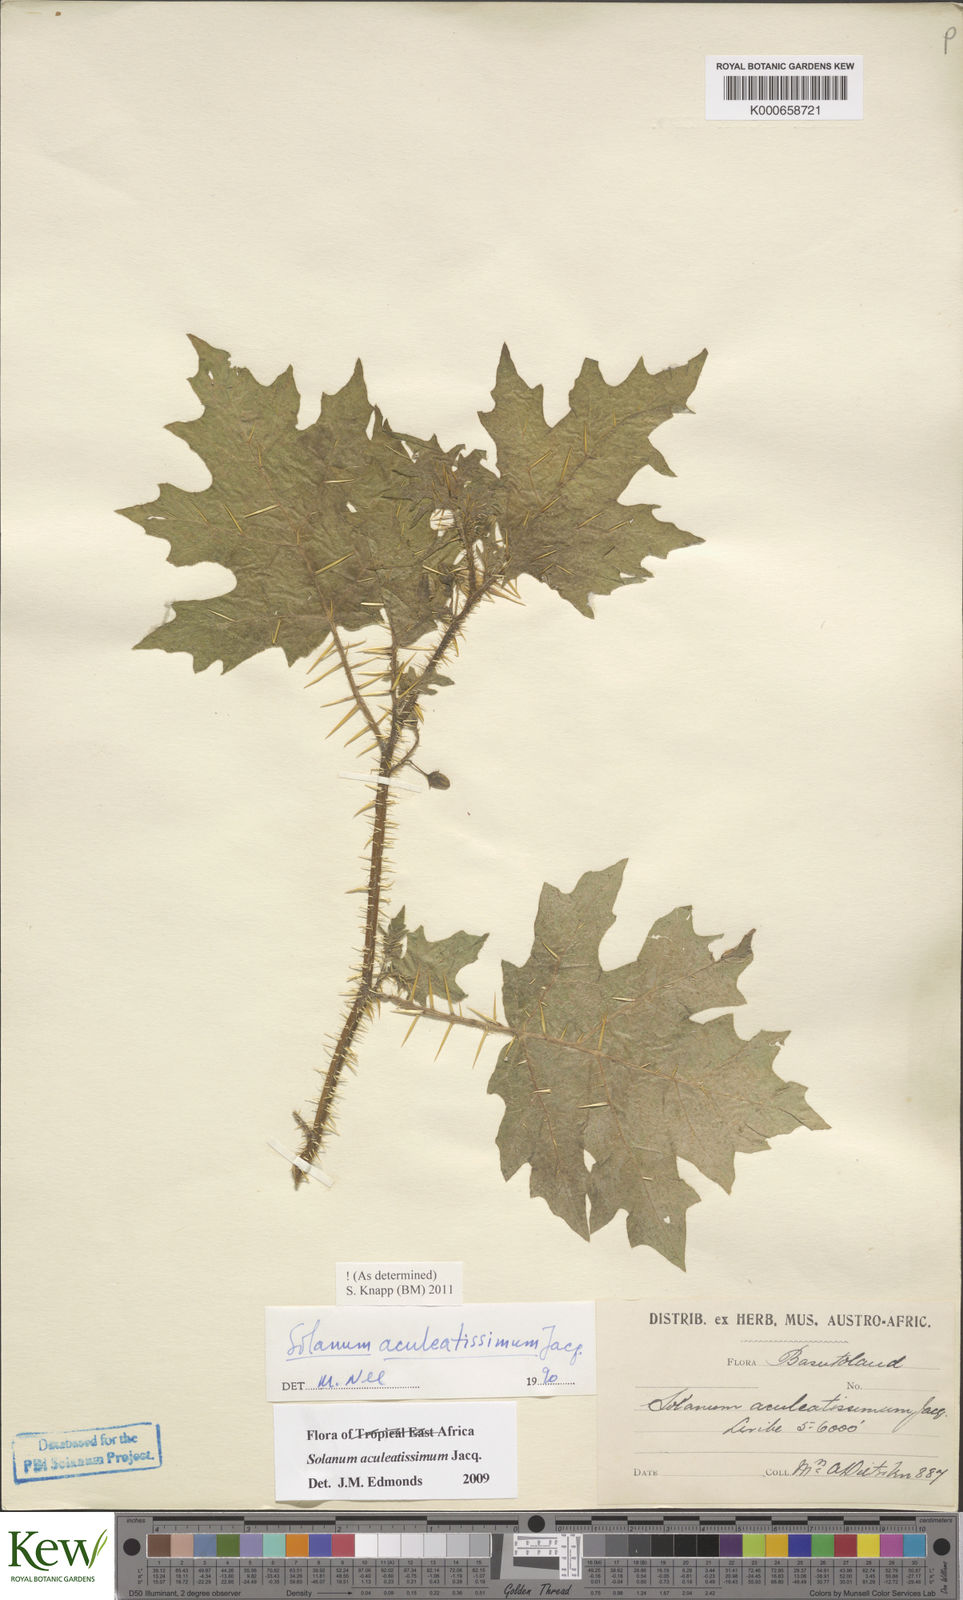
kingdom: Plantae
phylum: Tracheophyta
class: Magnoliopsida
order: Solanales
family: Solanaceae
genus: Solanum
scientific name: Solanum aculeatissimum
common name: Dutch eggplant
